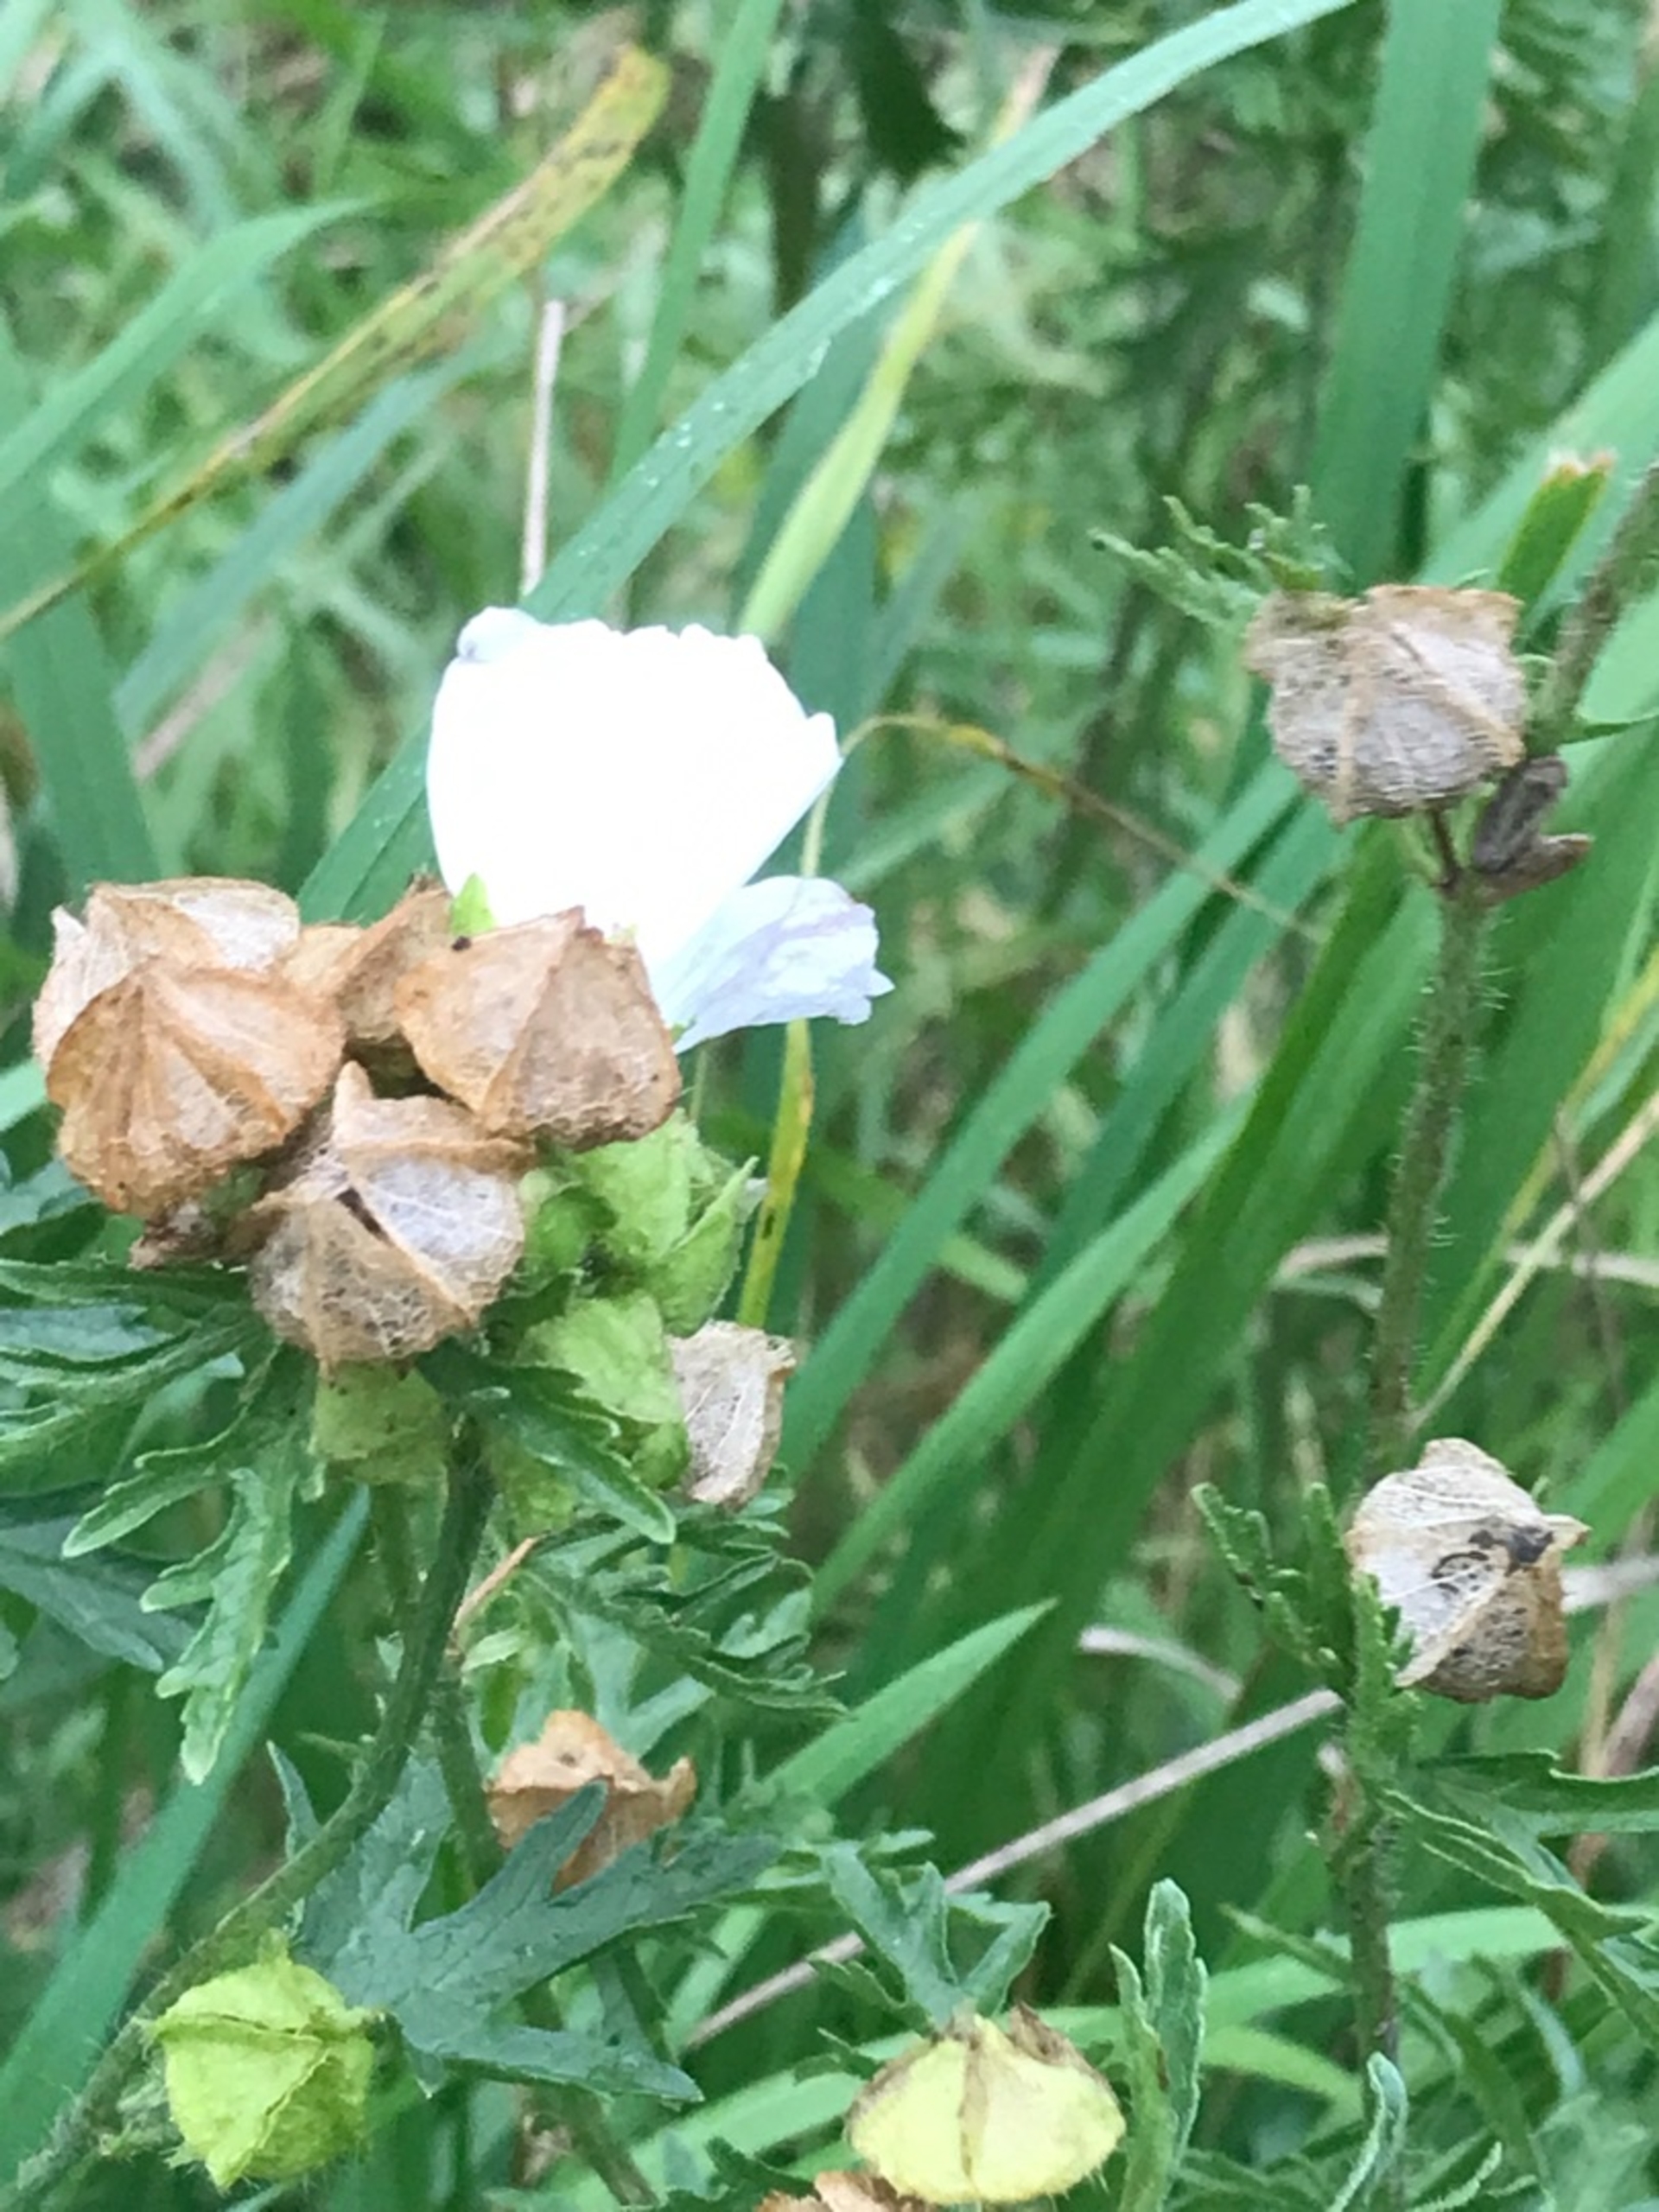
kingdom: Plantae
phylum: Tracheophyta
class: Magnoliopsida
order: Malvales
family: Malvaceae
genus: Malva
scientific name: Malva moschata
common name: Moskus-katost
